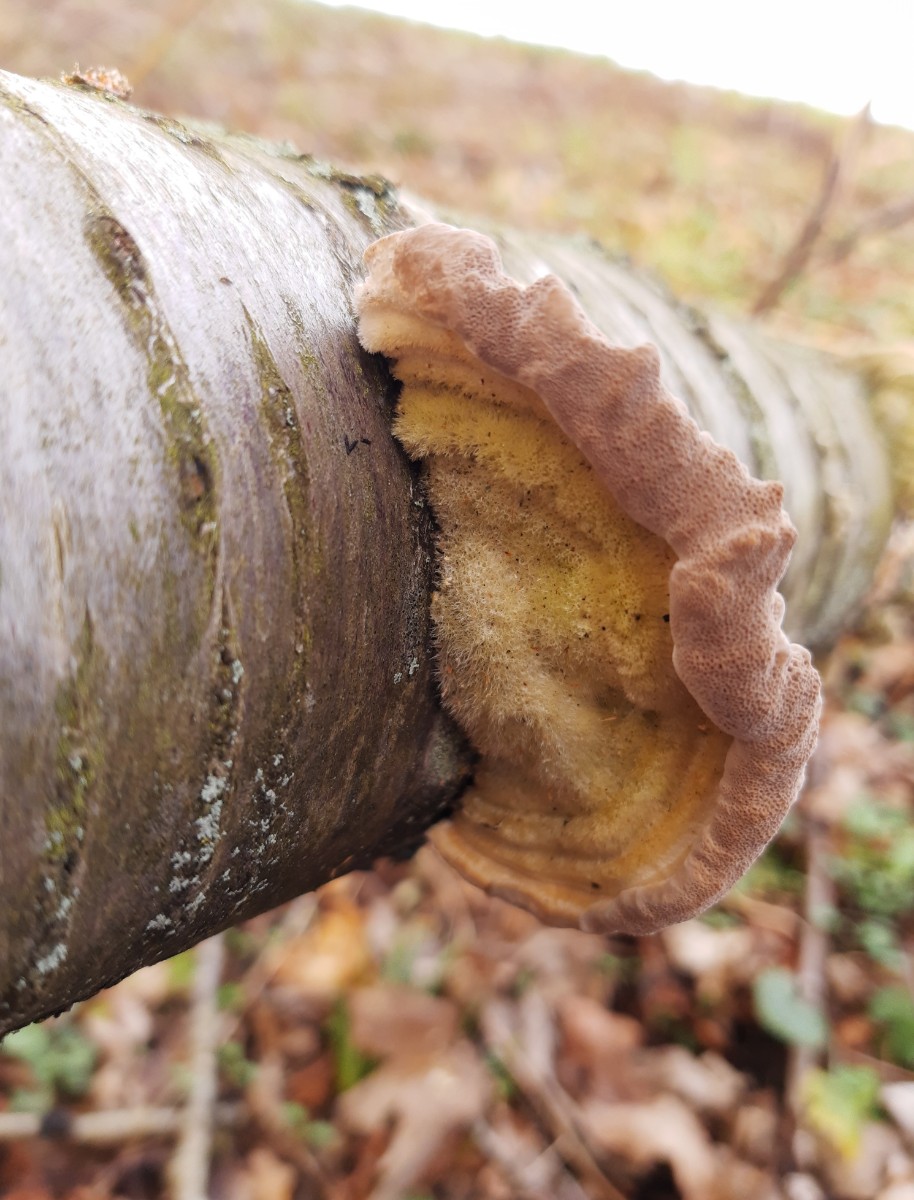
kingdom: Fungi
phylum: Basidiomycota
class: Agaricomycetes
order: Polyporales
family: Polyporaceae
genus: Trametes
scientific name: Trametes hirsuta
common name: håret læderporesvamp
